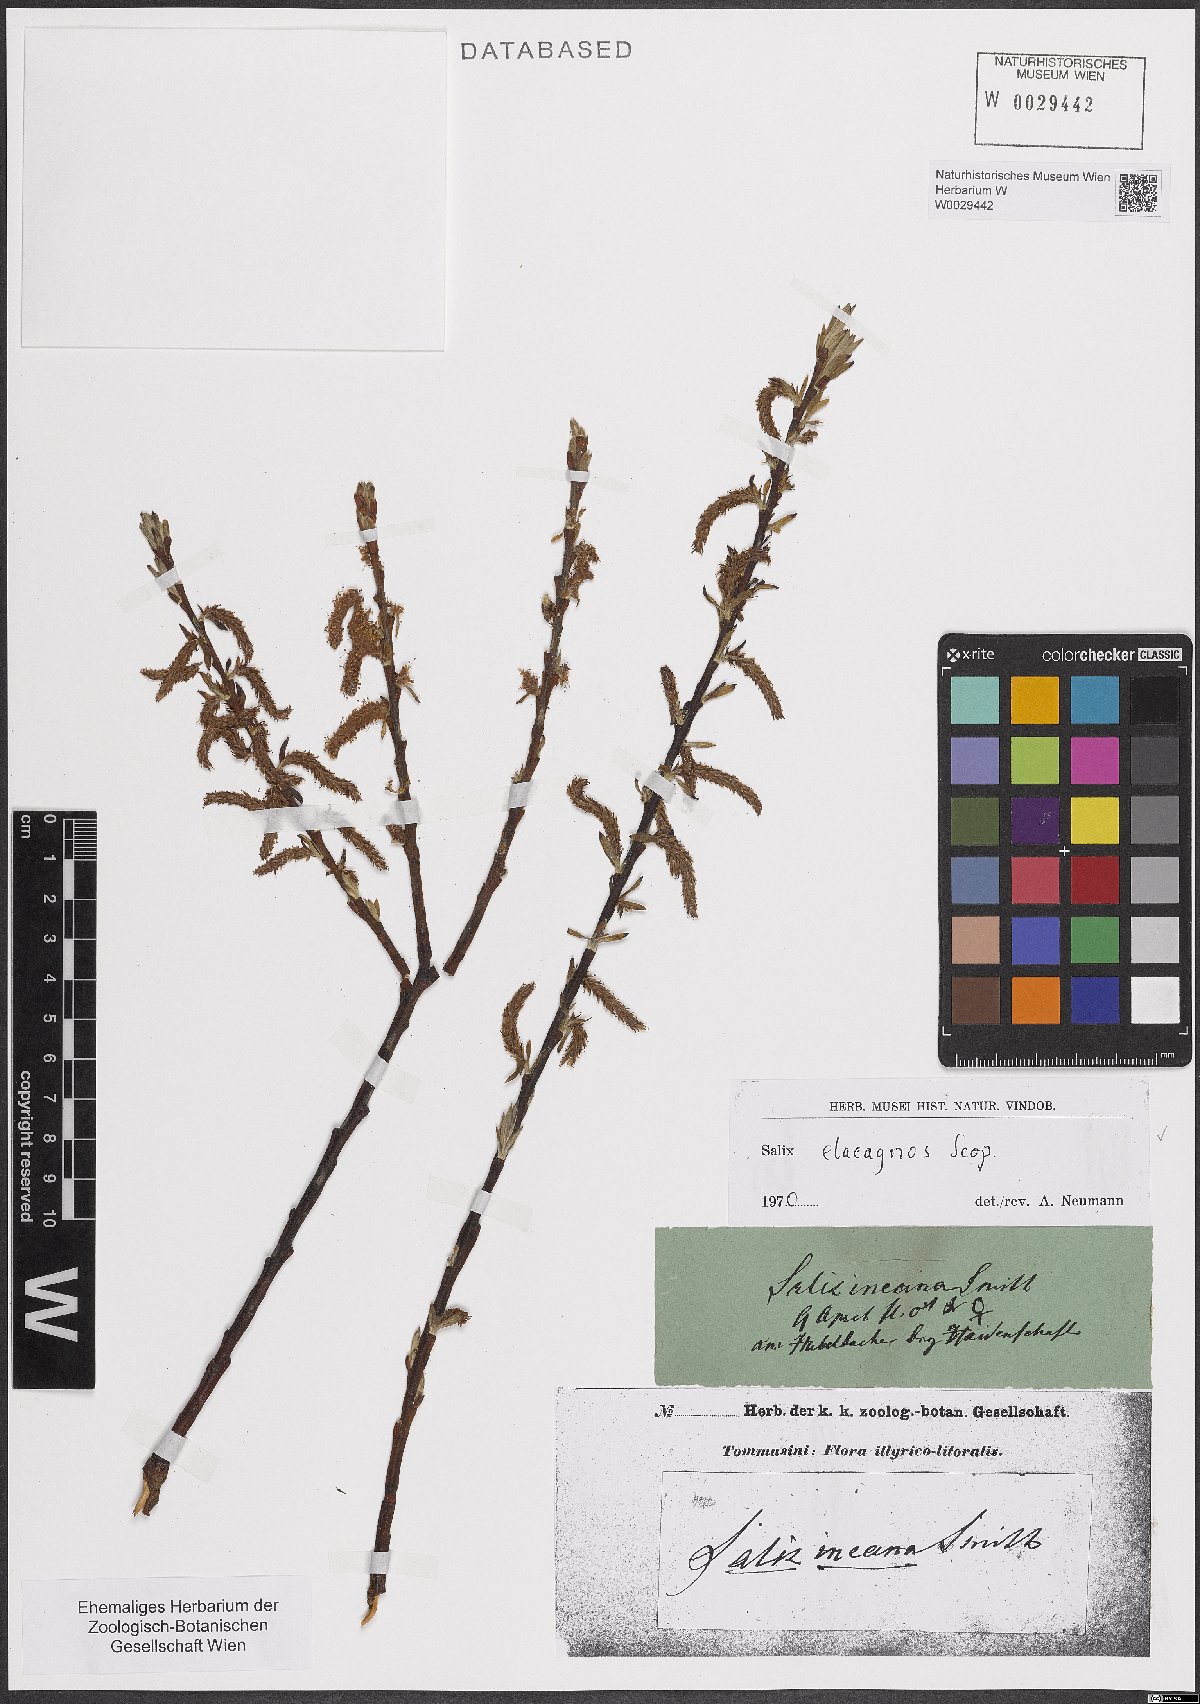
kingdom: Plantae
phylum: Tracheophyta
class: Magnoliopsida
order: Malpighiales
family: Salicaceae
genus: Salix
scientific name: Salix eleagnos
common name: Elaeagnus willow
